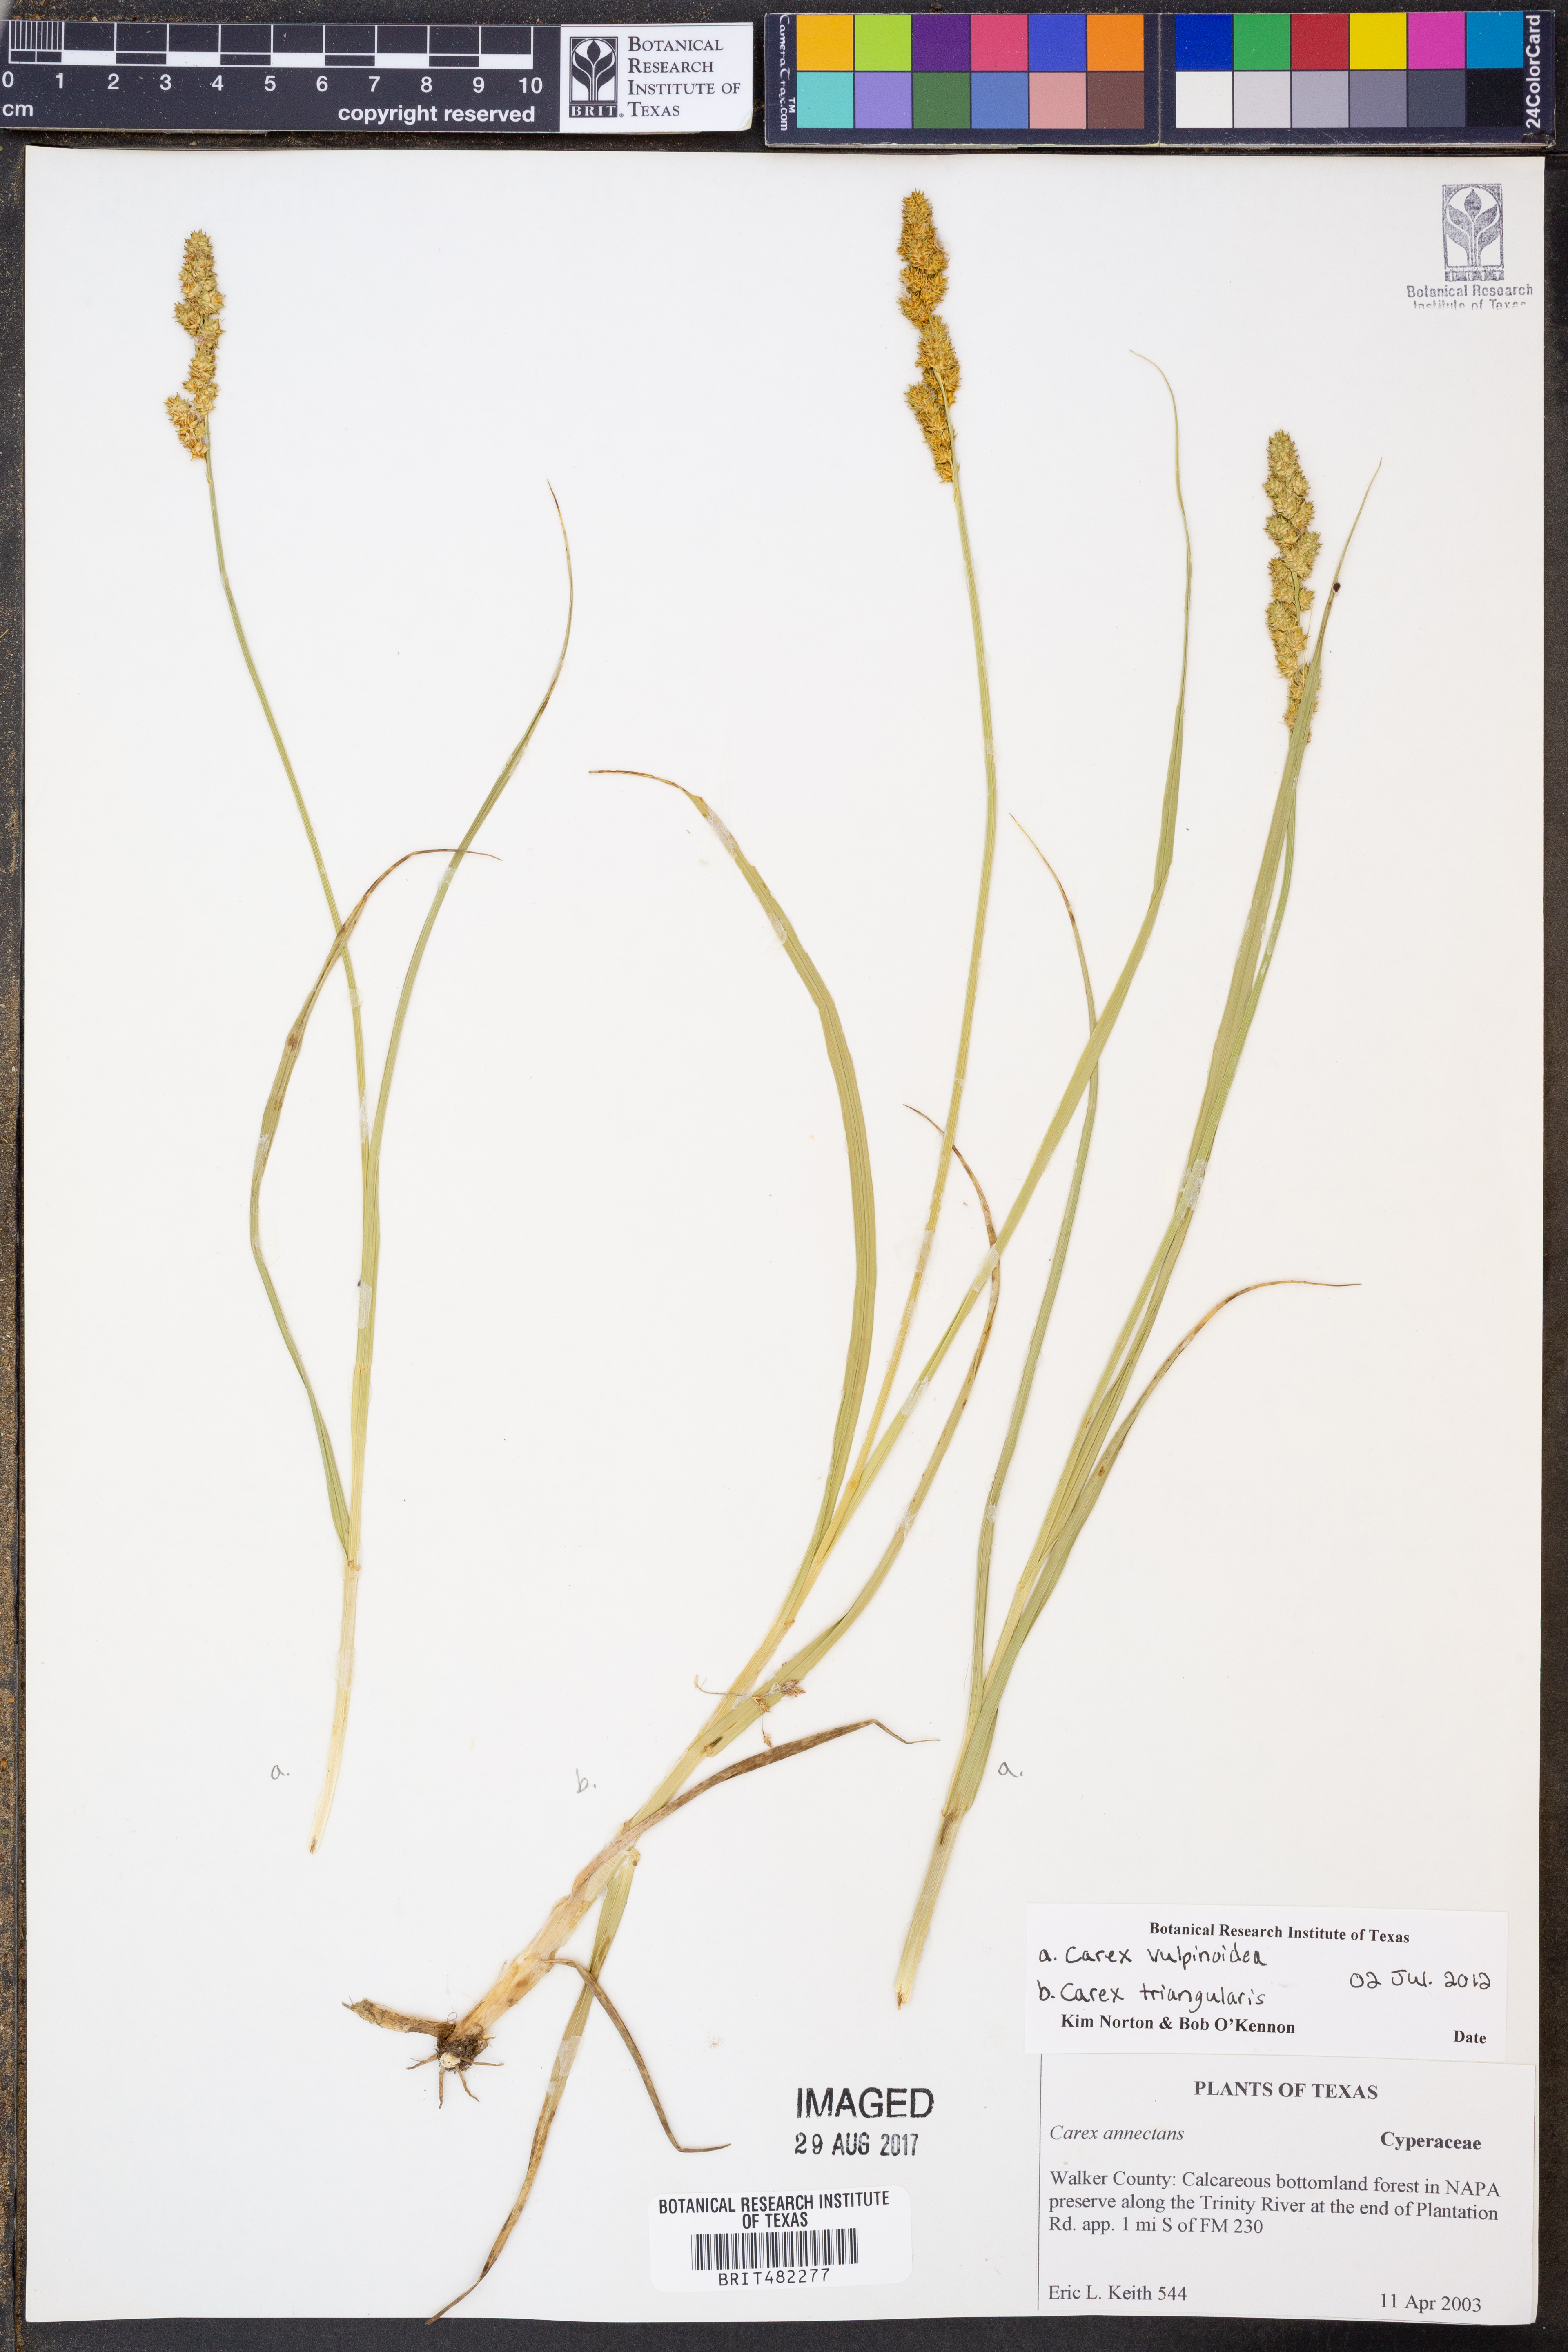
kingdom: Plantae
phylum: Tracheophyta
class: Liliopsida
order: Poales
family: Cyperaceae
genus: Carex
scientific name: Carex vulpinoidea
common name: American fox-sedge
